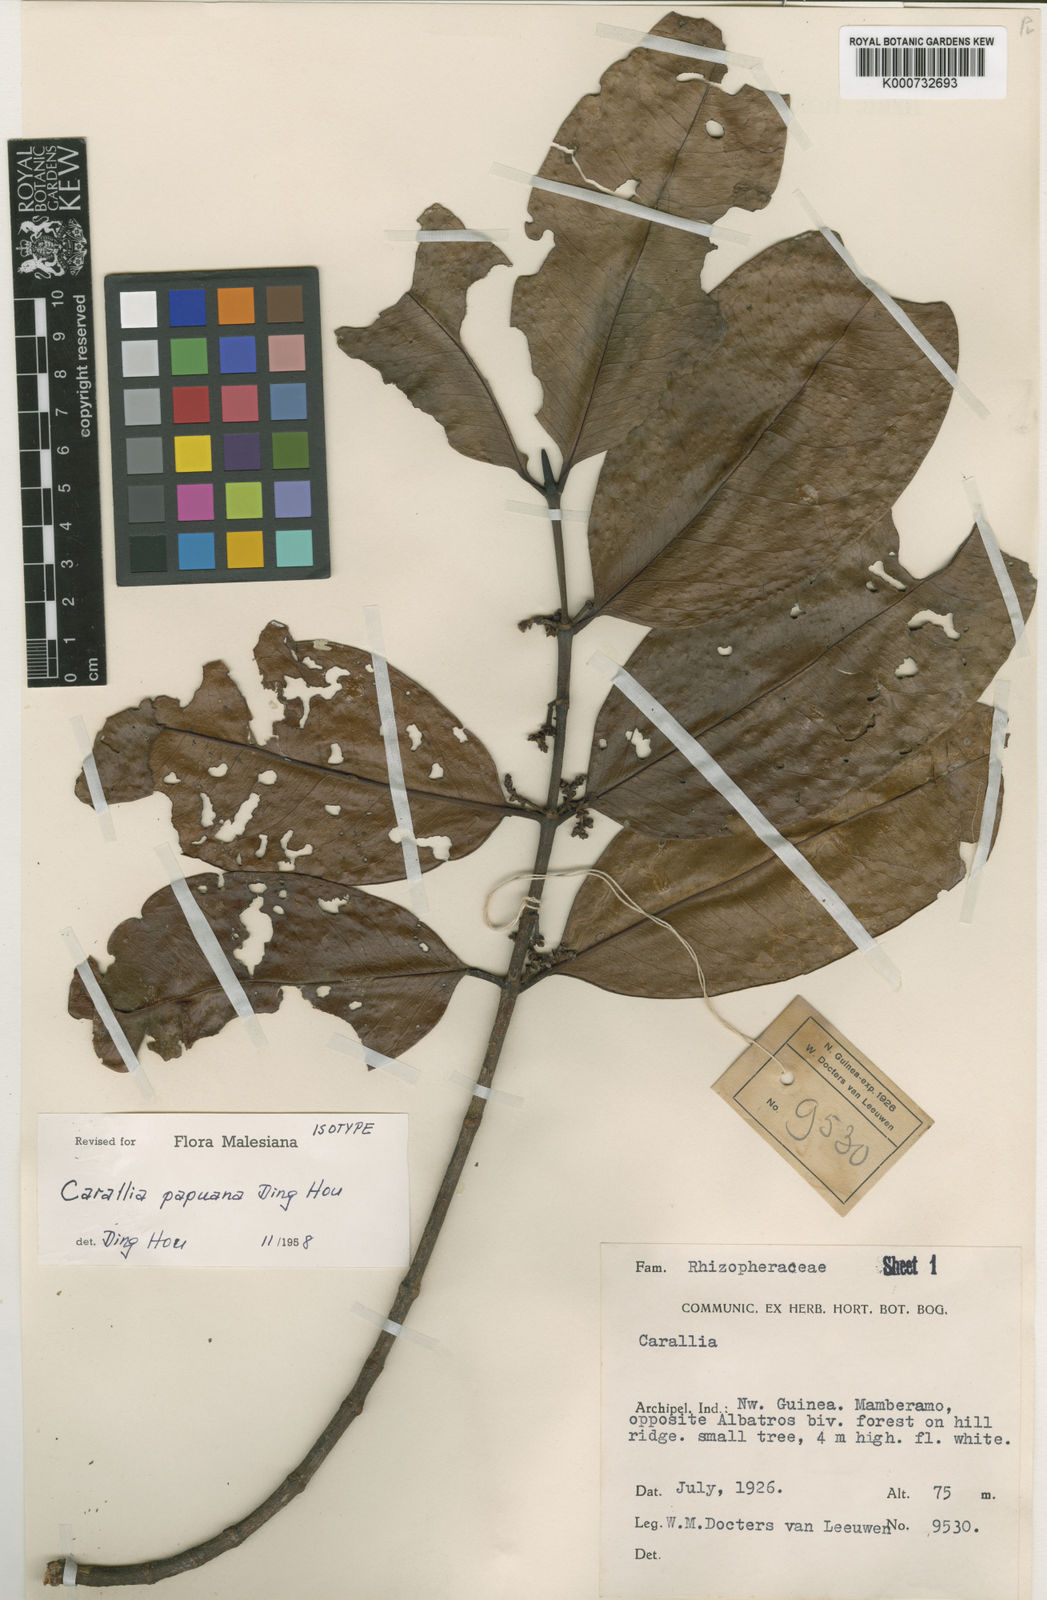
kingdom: Plantae
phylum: Tracheophyta
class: Magnoliopsida
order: Malpighiales
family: Rhizophoraceae
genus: Carallia
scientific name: Carallia papuana
